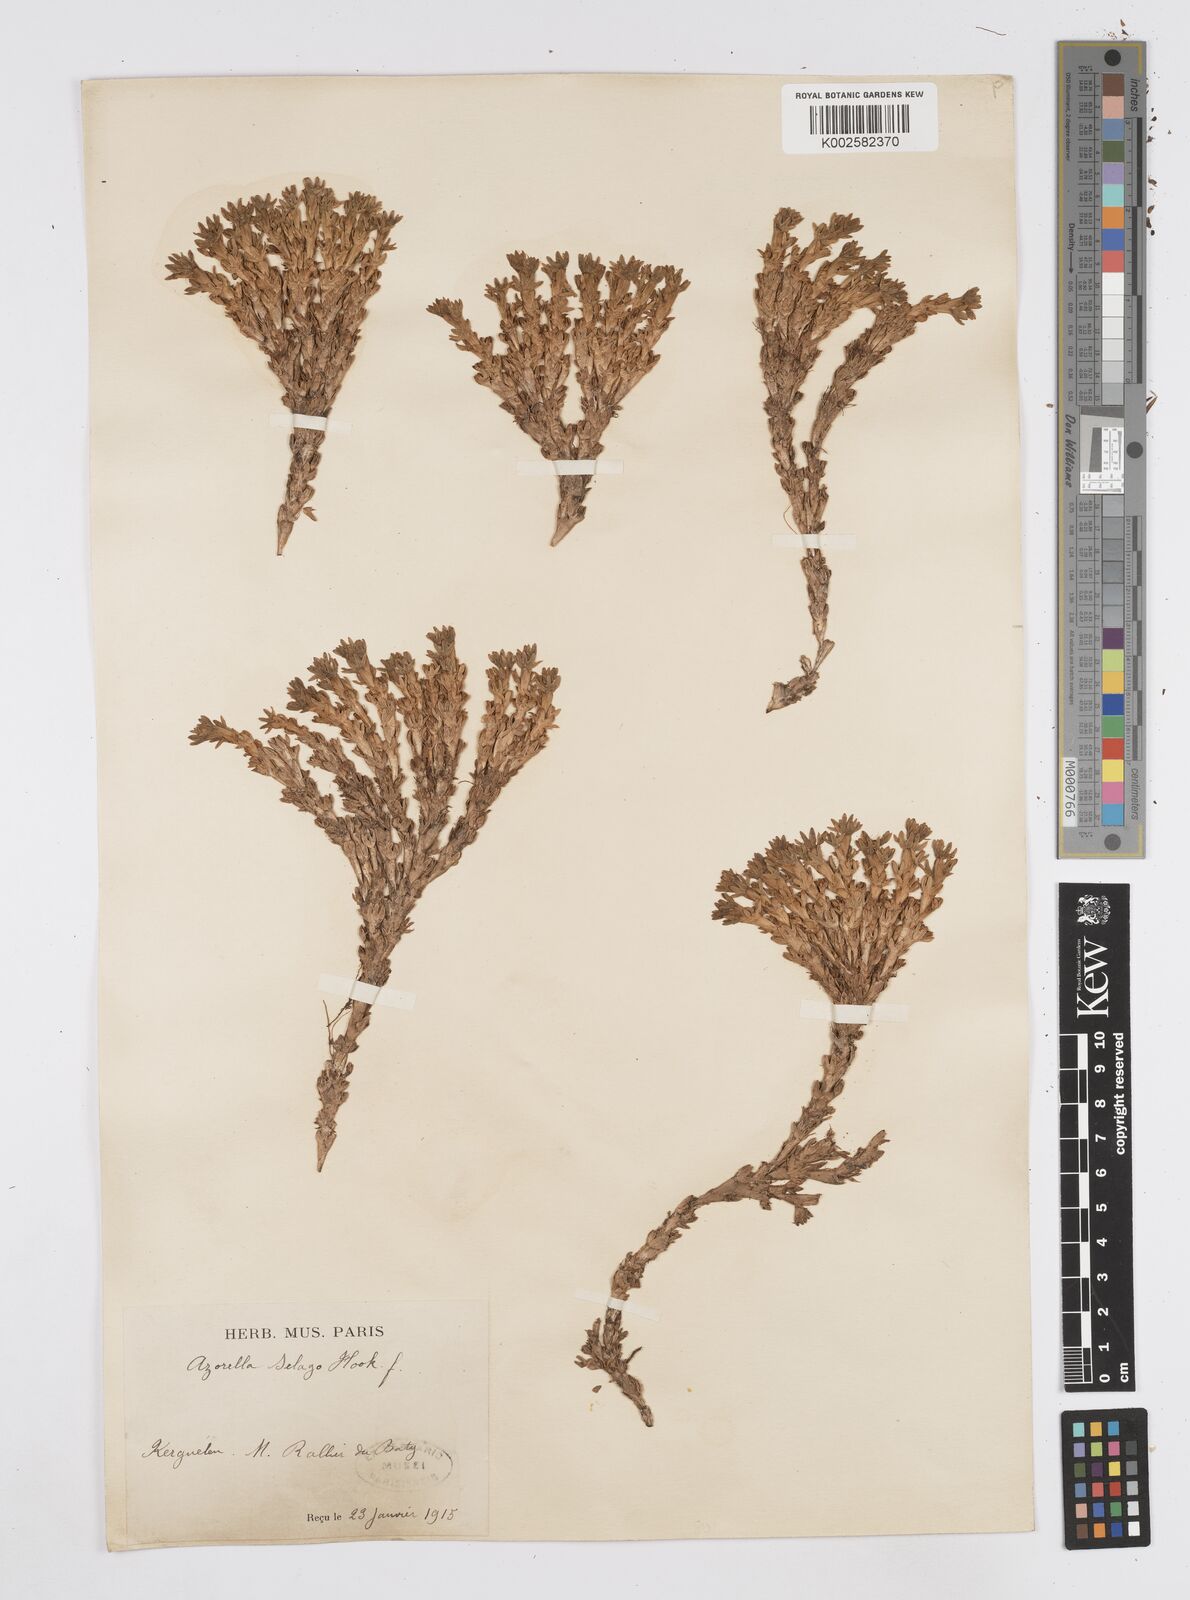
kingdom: Plantae
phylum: Tracheophyta
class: Magnoliopsida
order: Apiales
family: Apiaceae
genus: Azorella
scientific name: Azorella selago
